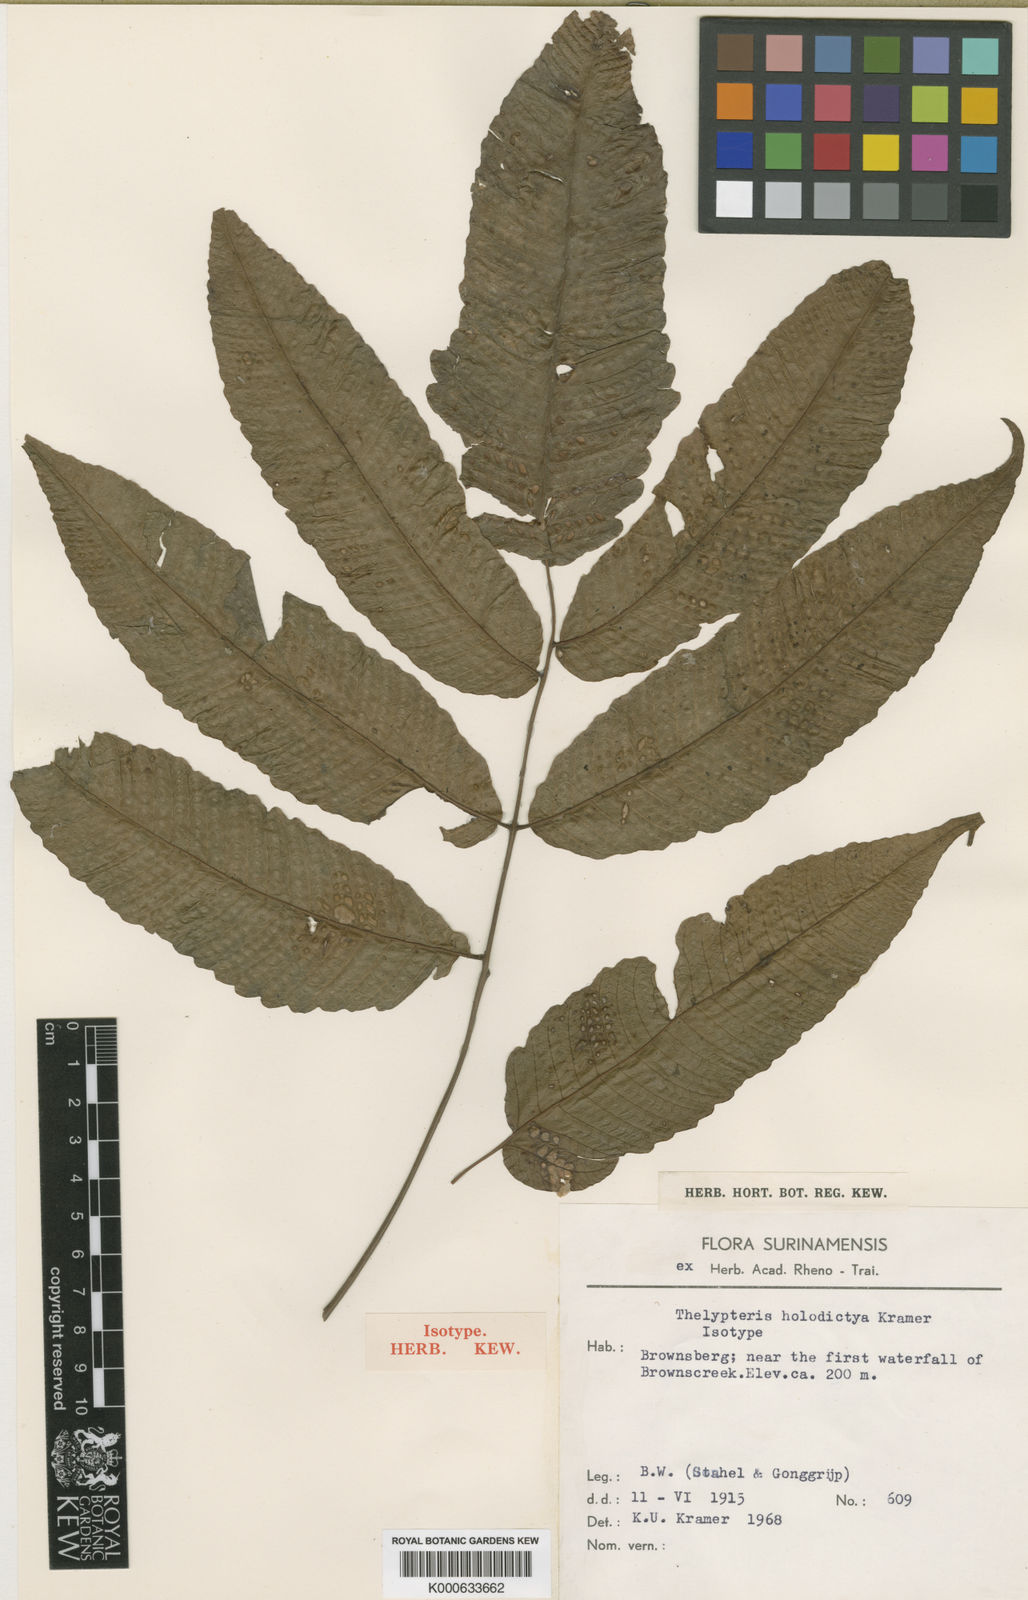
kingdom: Plantae
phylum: Tracheophyta
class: Polypodiopsida
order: Polypodiales
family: Thelypteridaceae
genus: Goniopteris
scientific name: Goniopteris holodictya
